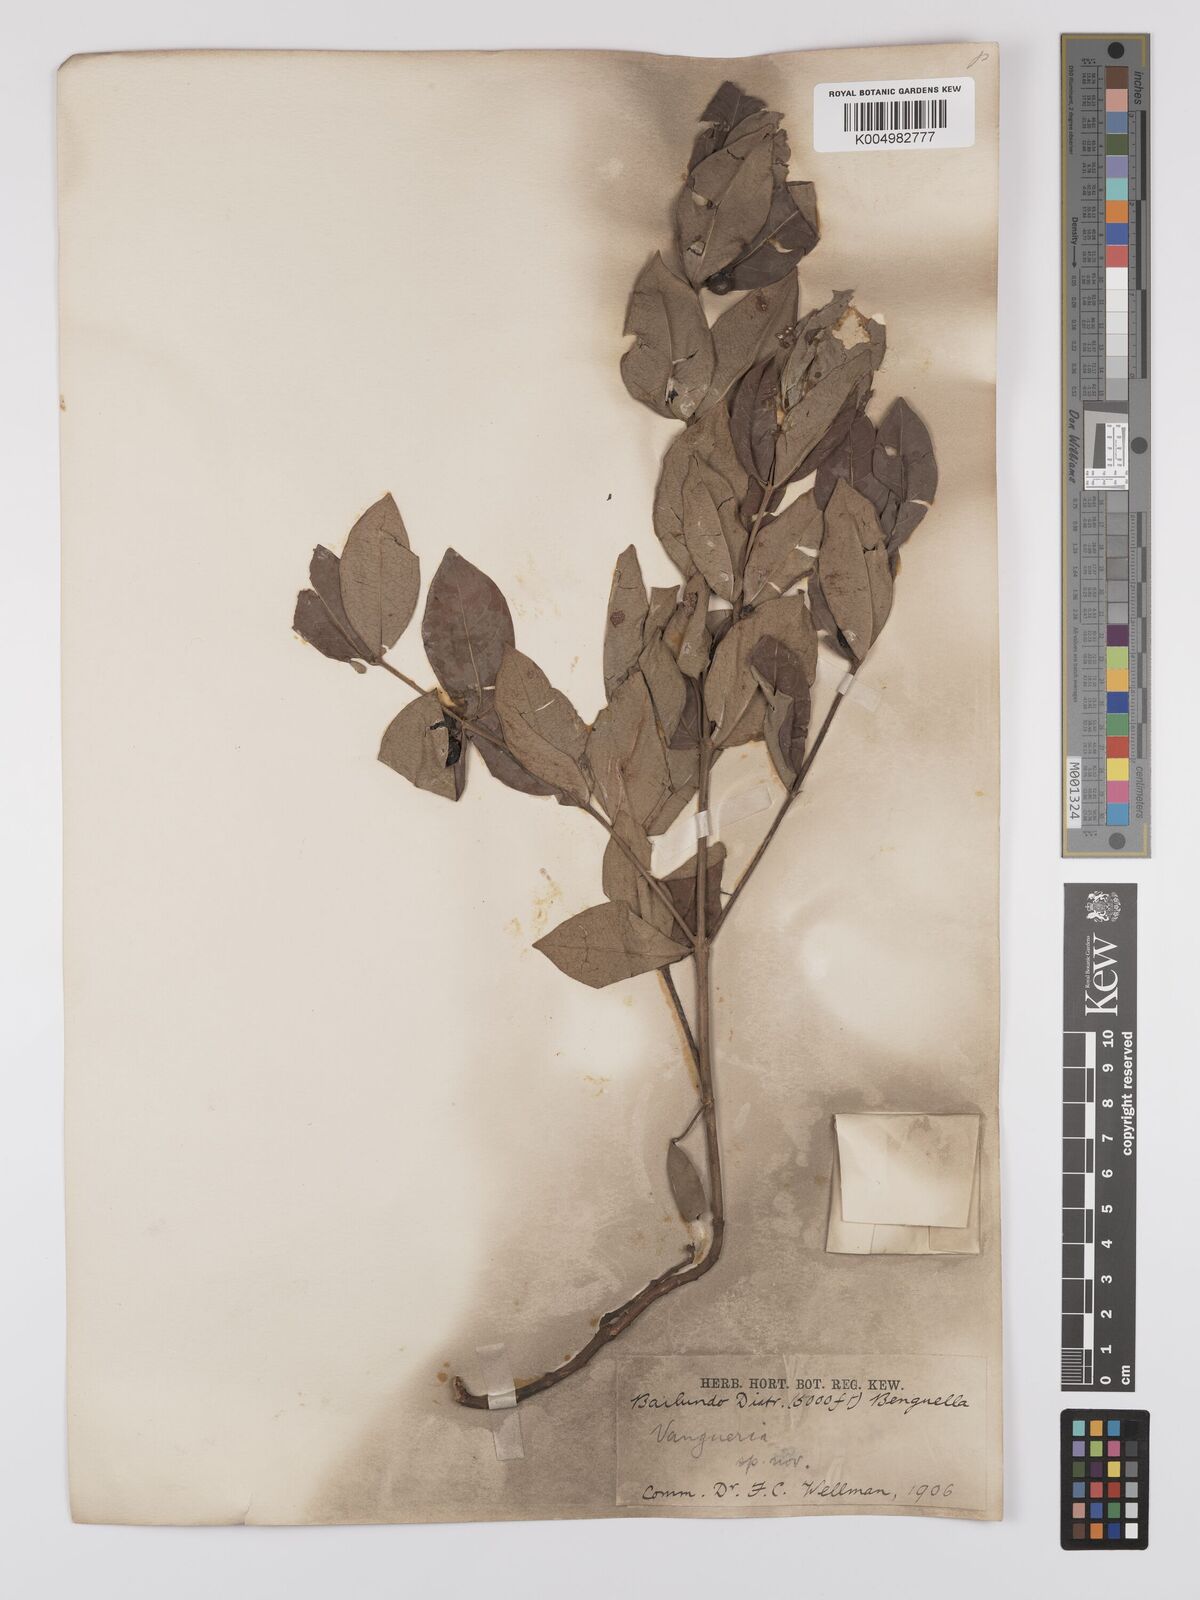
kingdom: Plantae
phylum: Tracheophyta
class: Magnoliopsida
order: Gentianales
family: Rubiaceae
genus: Fadogia
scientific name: Fadogia
